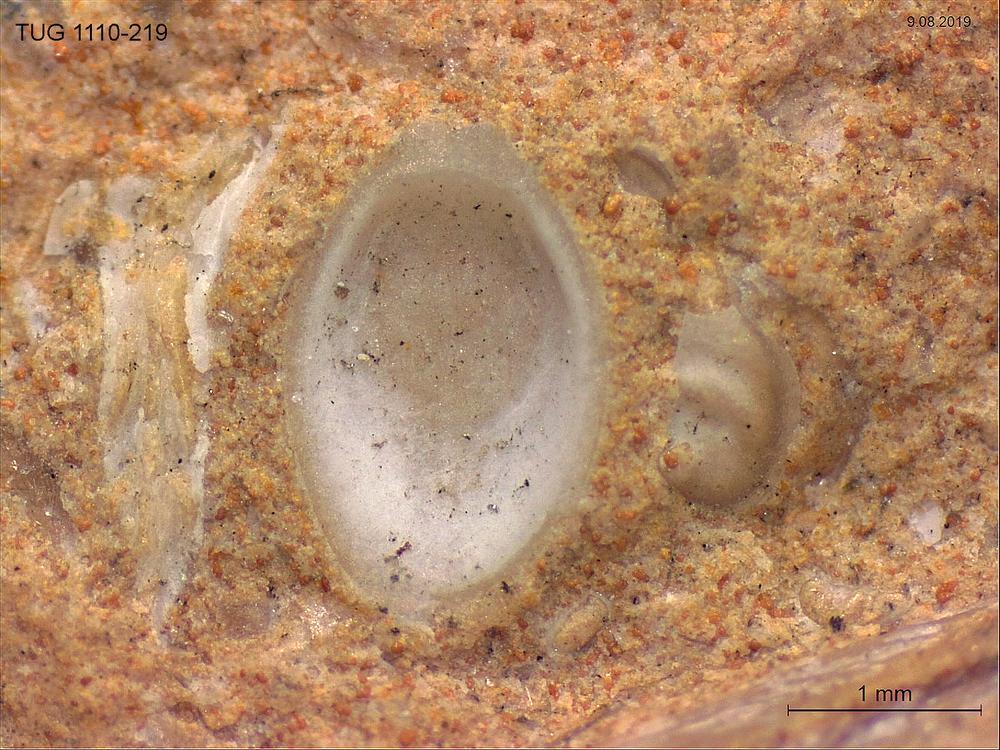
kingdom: Animalia
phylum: Brachiopoda
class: Craniata
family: Craniopsidae
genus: Craniops
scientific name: Craniops
